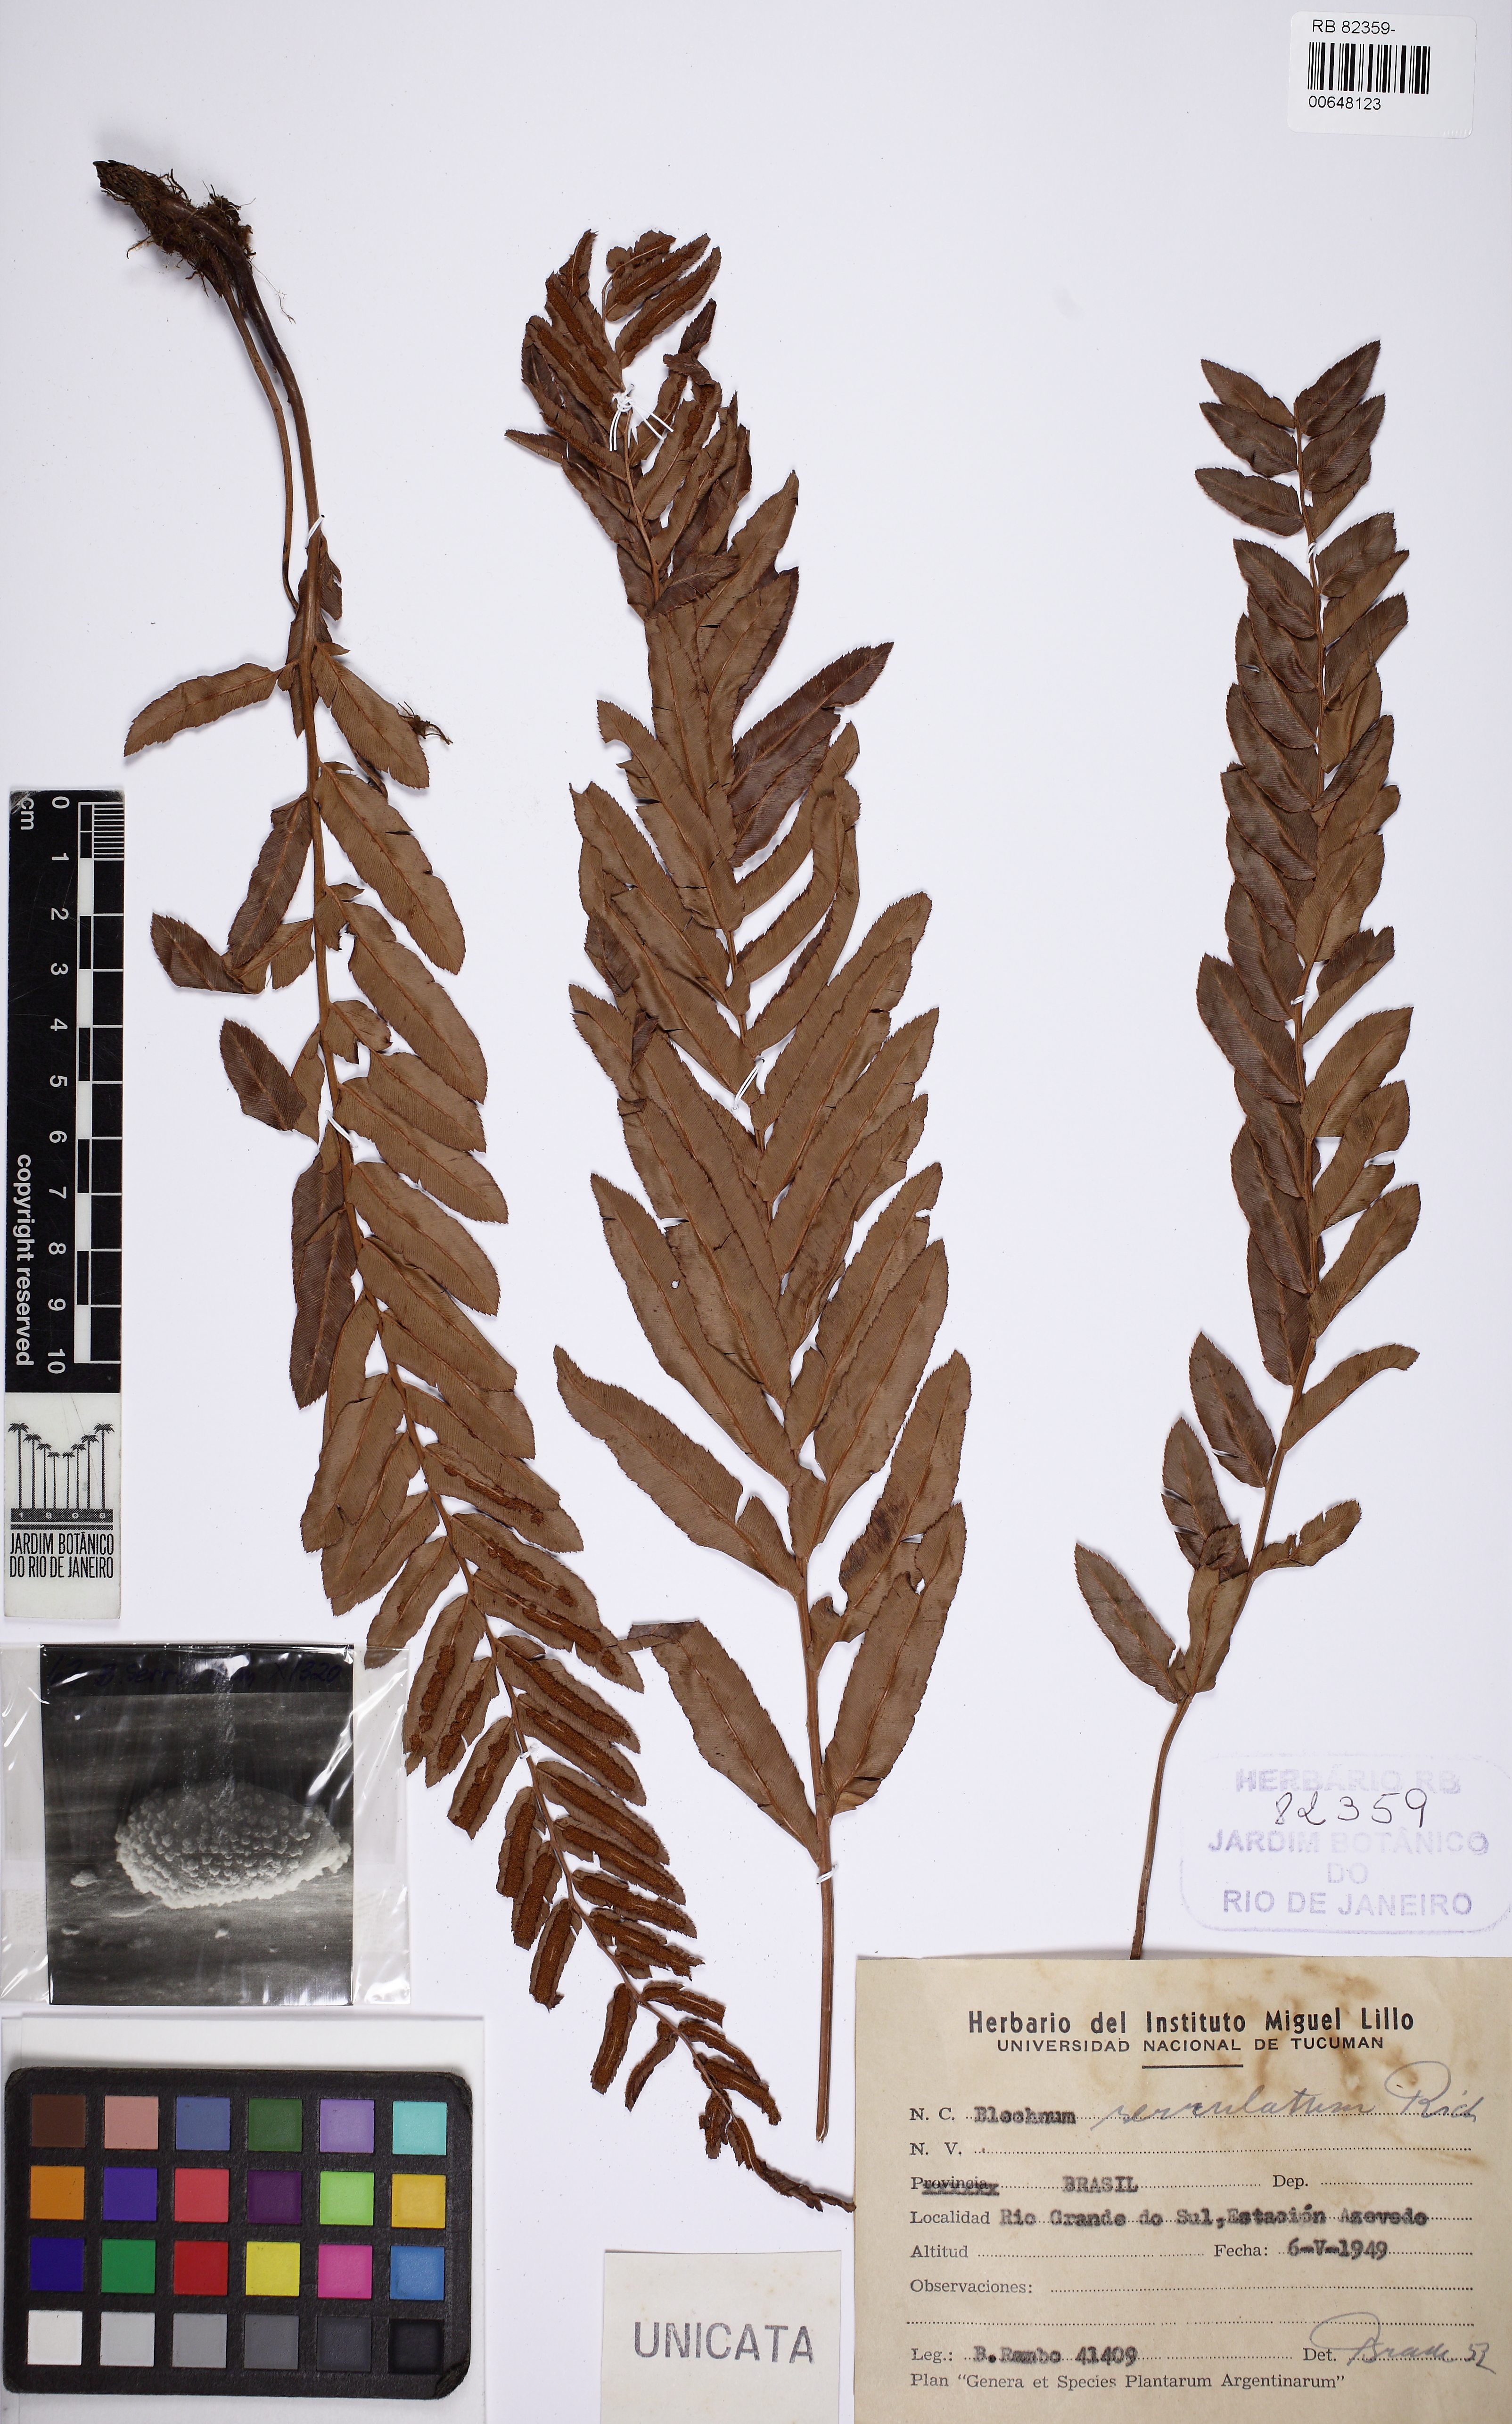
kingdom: Plantae
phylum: Tracheophyta
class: Polypodiopsida
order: Polypodiales
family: Blechnaceae
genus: Telmatoblechnum
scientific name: Telmatoblechnum serrulatum
